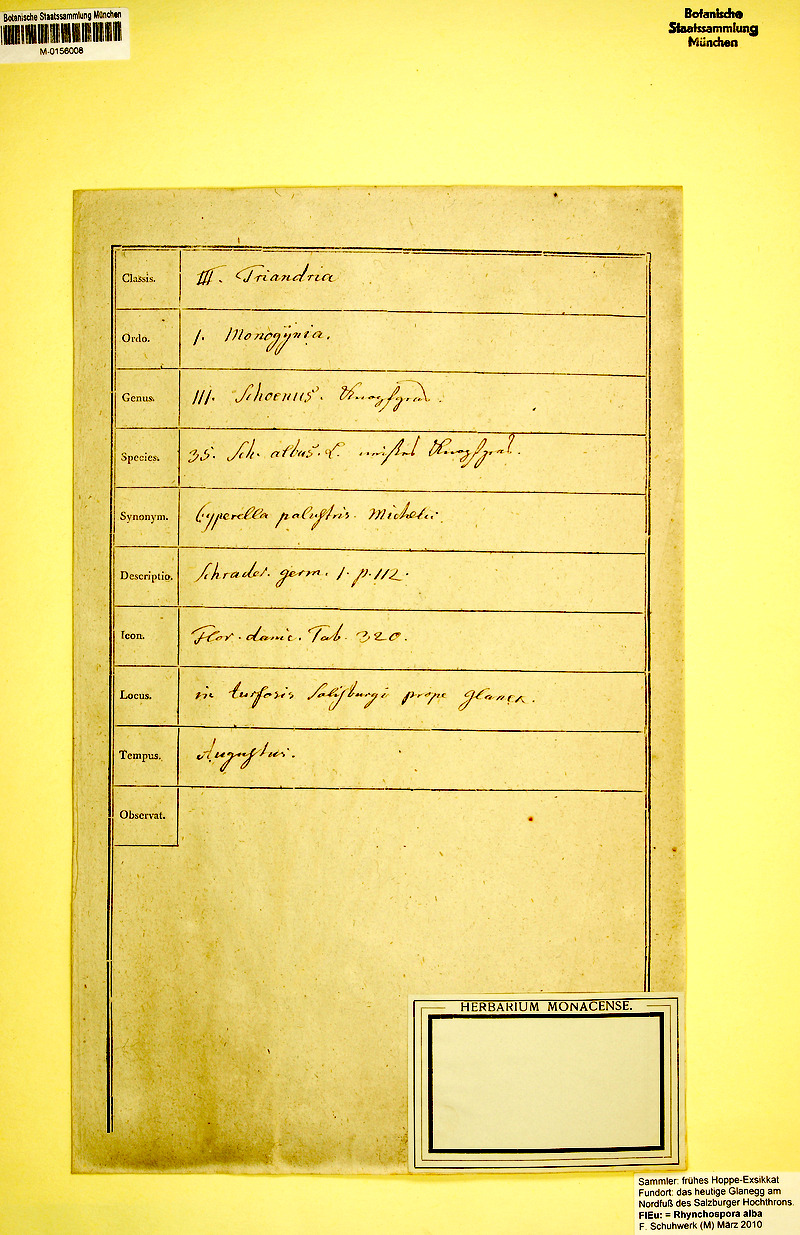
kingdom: Plantae
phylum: Tracheophyta
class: Liliopsida
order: Poales
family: Cyperaceae
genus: Rhynchospora
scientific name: Rhynchospora alba
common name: White beak-sedge
